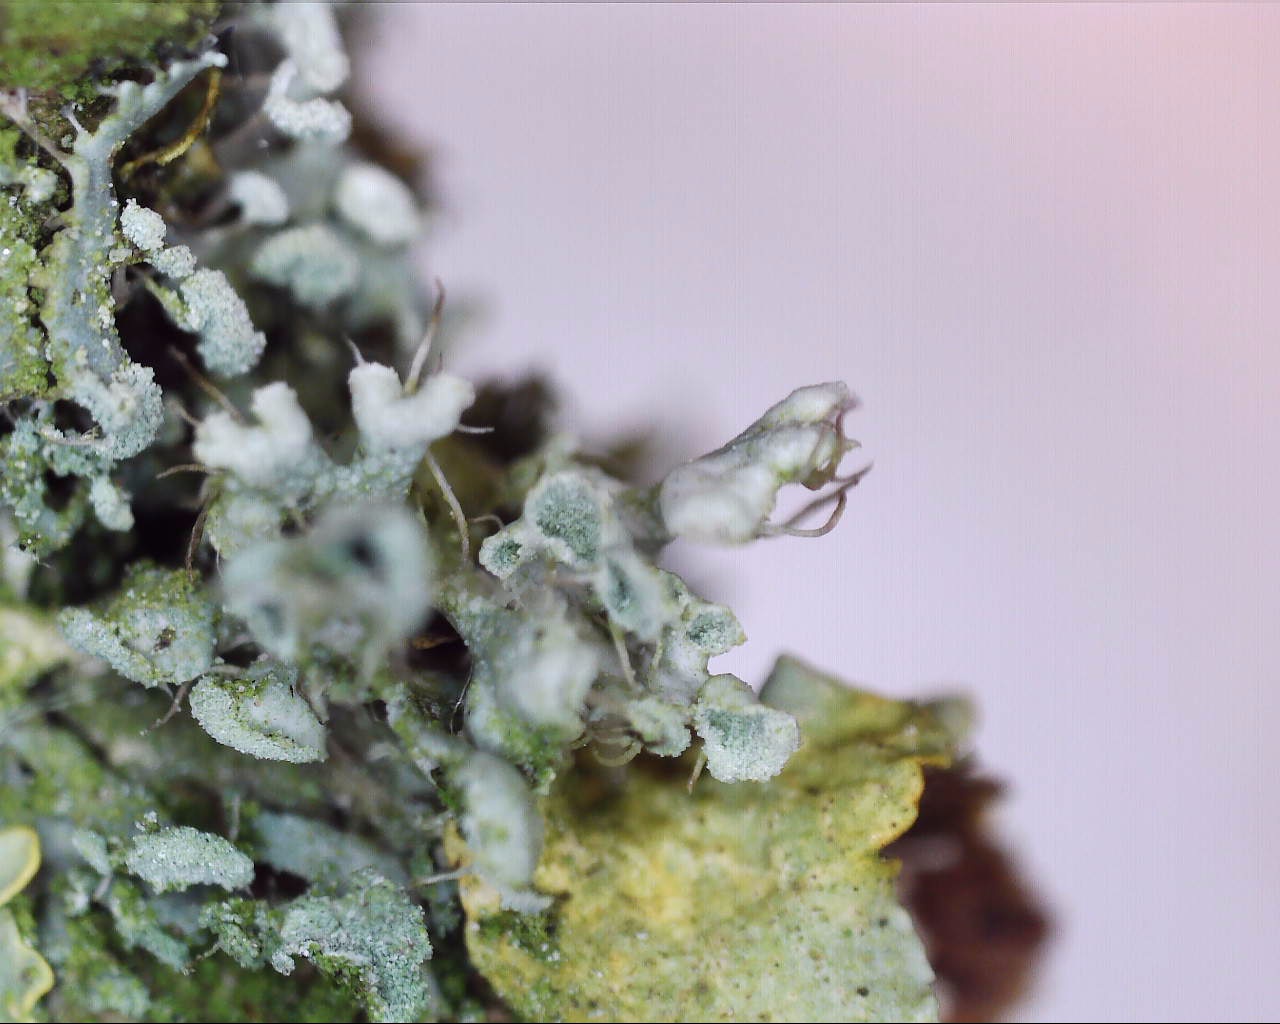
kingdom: Fungi
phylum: Ascomycota
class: Lecanoromycetes
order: Caliciales
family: Physciaceae
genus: Physcia
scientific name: Physcia adscendens
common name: hætte-rosetlav
